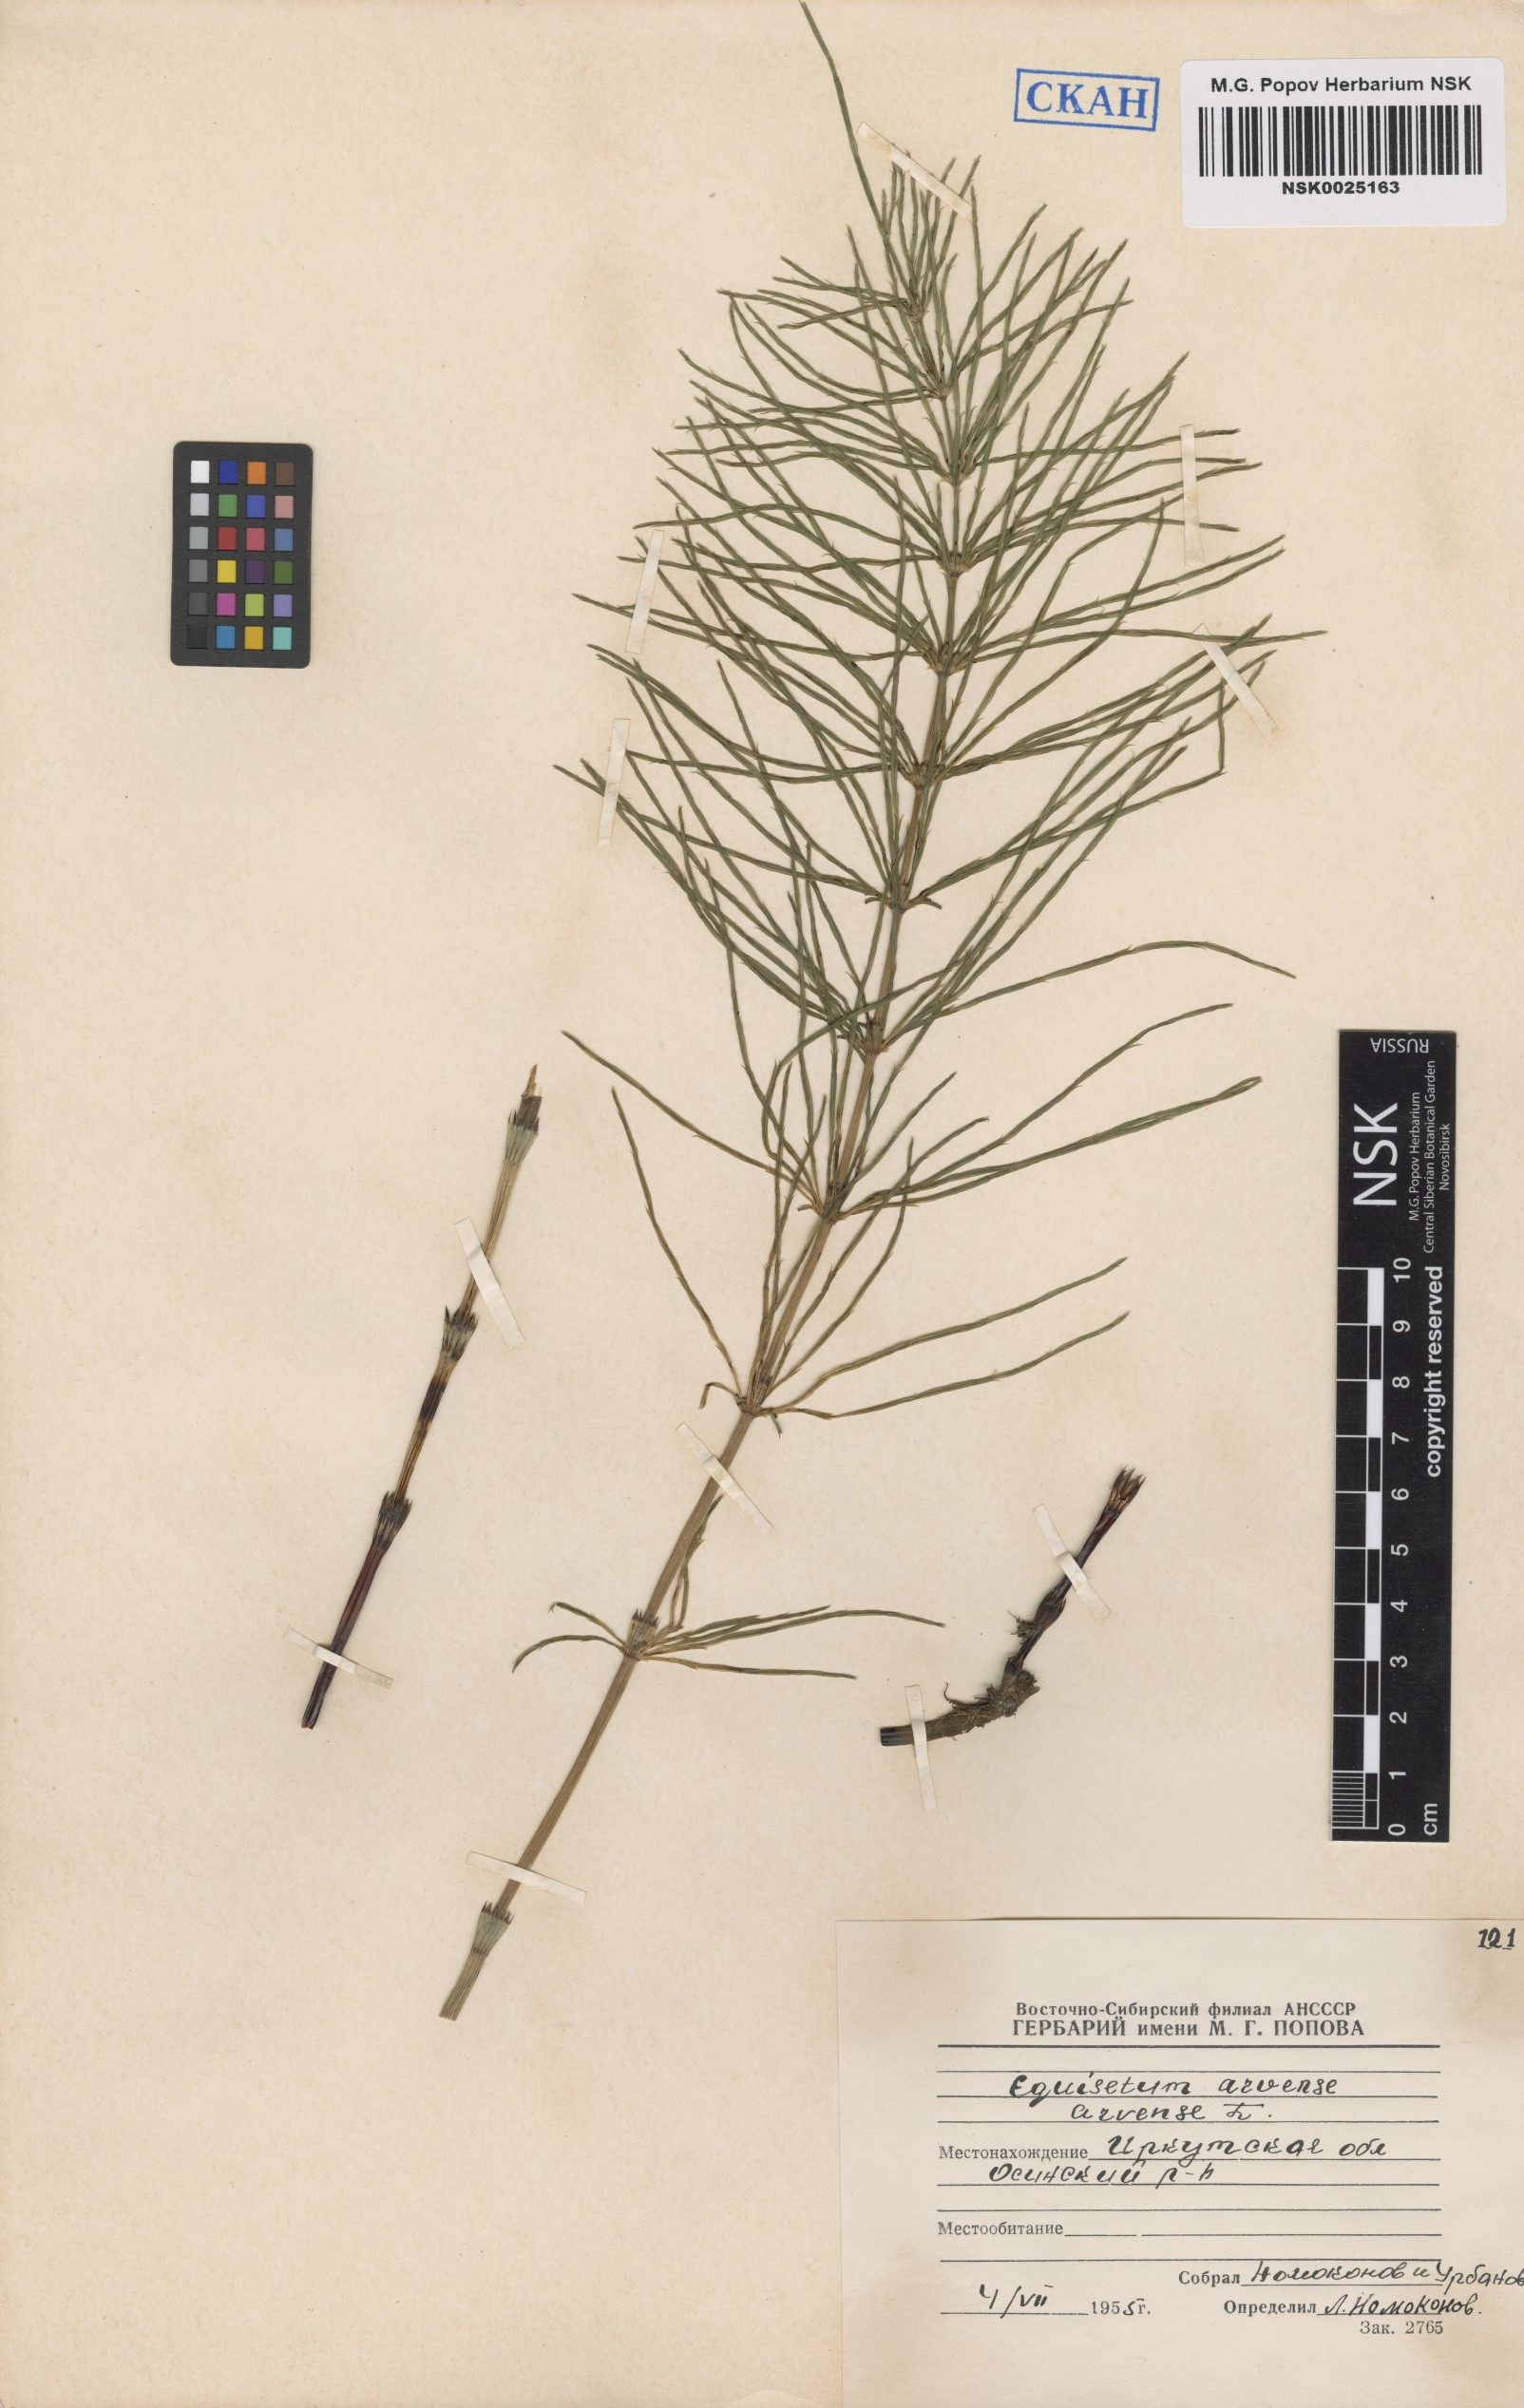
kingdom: Plantae
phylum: Tracheophyta
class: Polypodiopsida
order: Equisetales
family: Equisetaceae
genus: Equisetum
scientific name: Equisetum arvense
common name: Field horsetail
